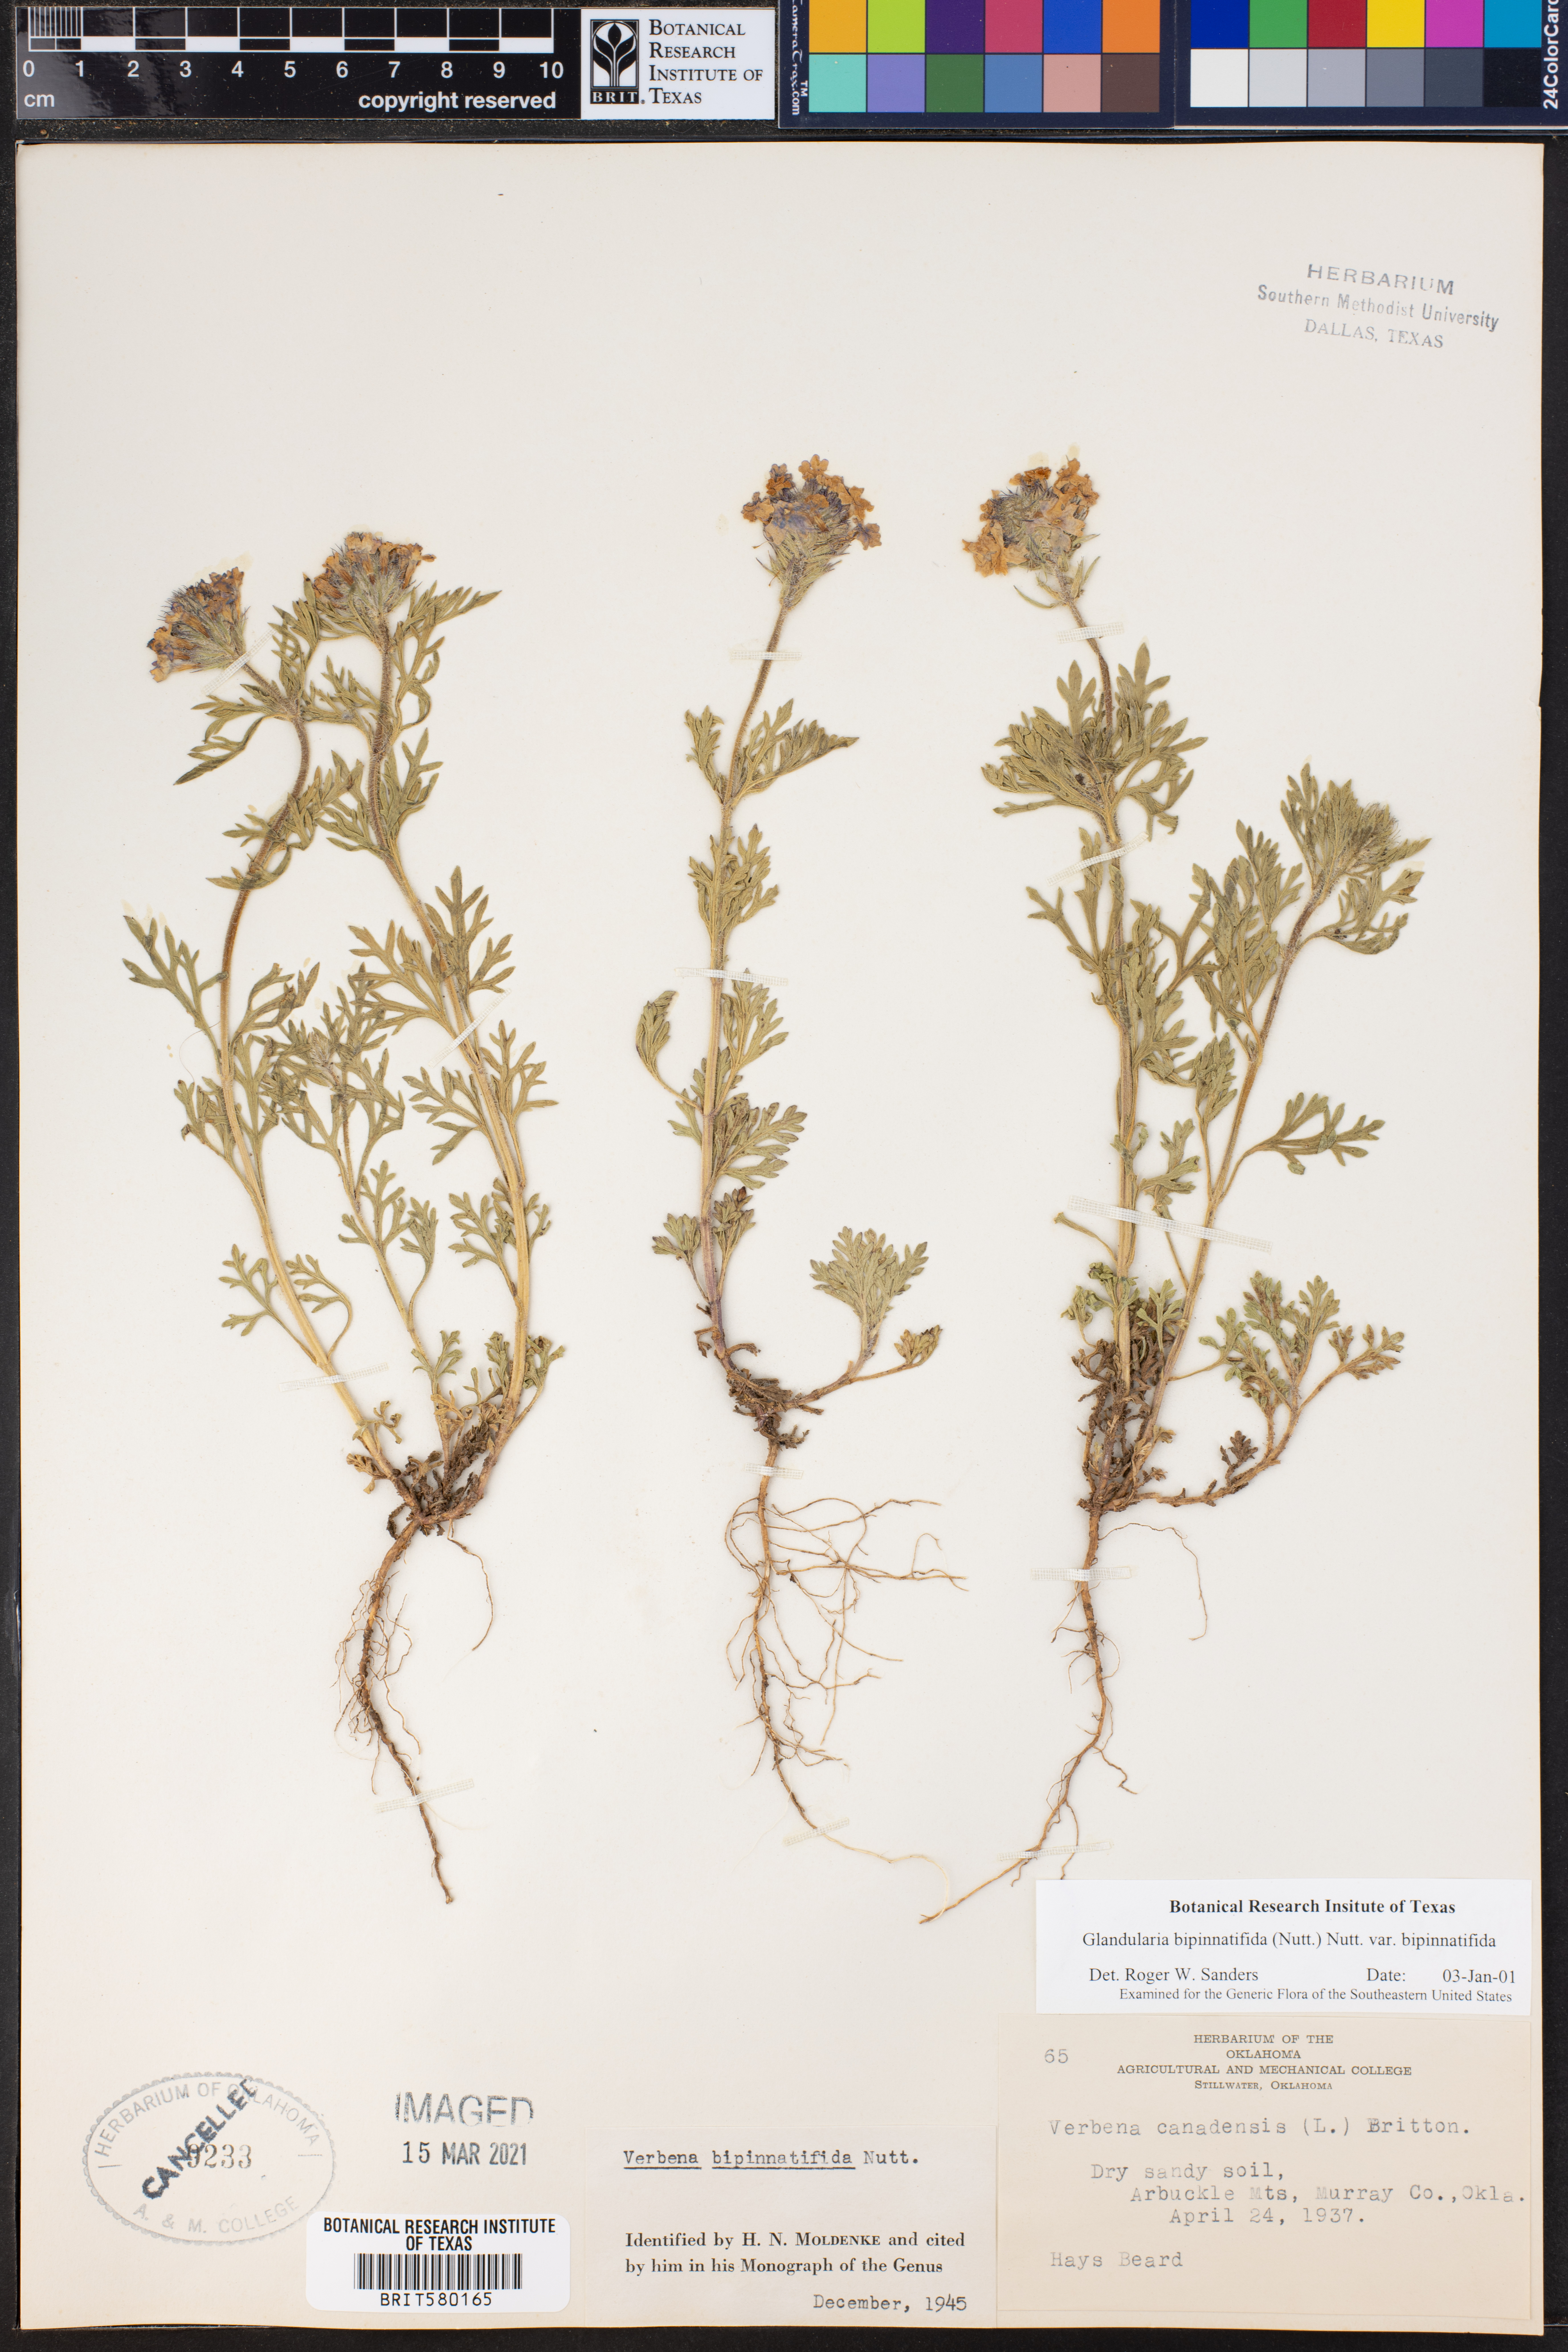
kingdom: Plantae
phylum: Tracheophyta
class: Magnoliopsida
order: Lamiales
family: Verbenaceae
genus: Verbena
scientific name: Verbena bipinnatifida
